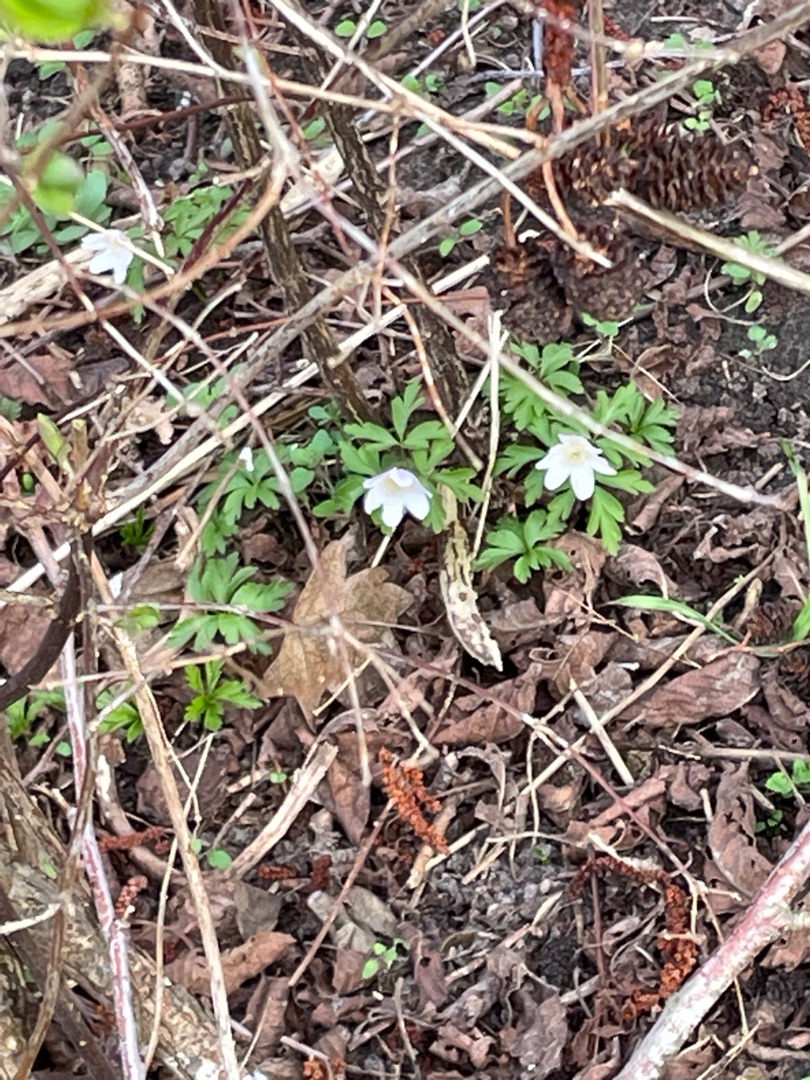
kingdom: Plantae
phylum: Tracheophyta
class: Magnoliopsida
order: Ranunculales
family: Ranunculaceae
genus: Anemone
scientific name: Anemone nemorosa
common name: Hvid anemone
